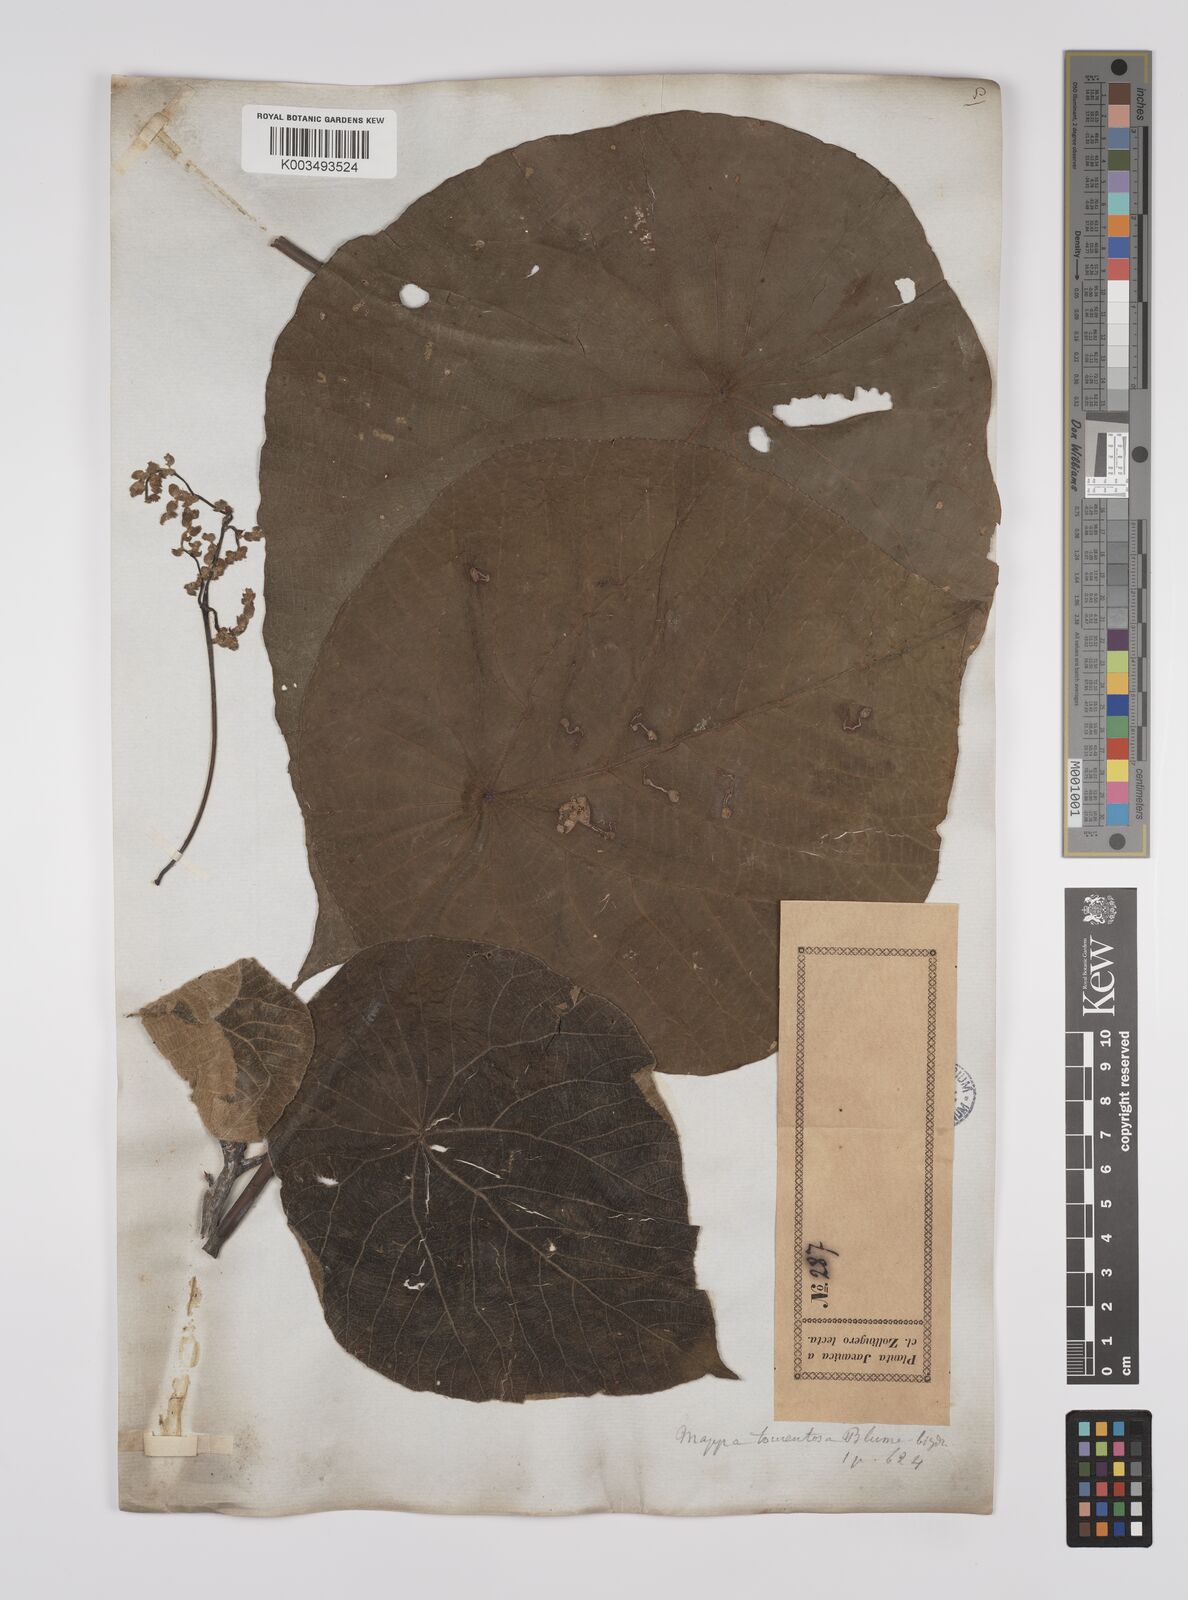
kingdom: Plantae
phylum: Tracheophyta
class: Magnoliopsida
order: Malpighiales
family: Euphorbiaceae
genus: Macaranga
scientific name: Macaranga tanarius
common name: Parasol leaf tree
